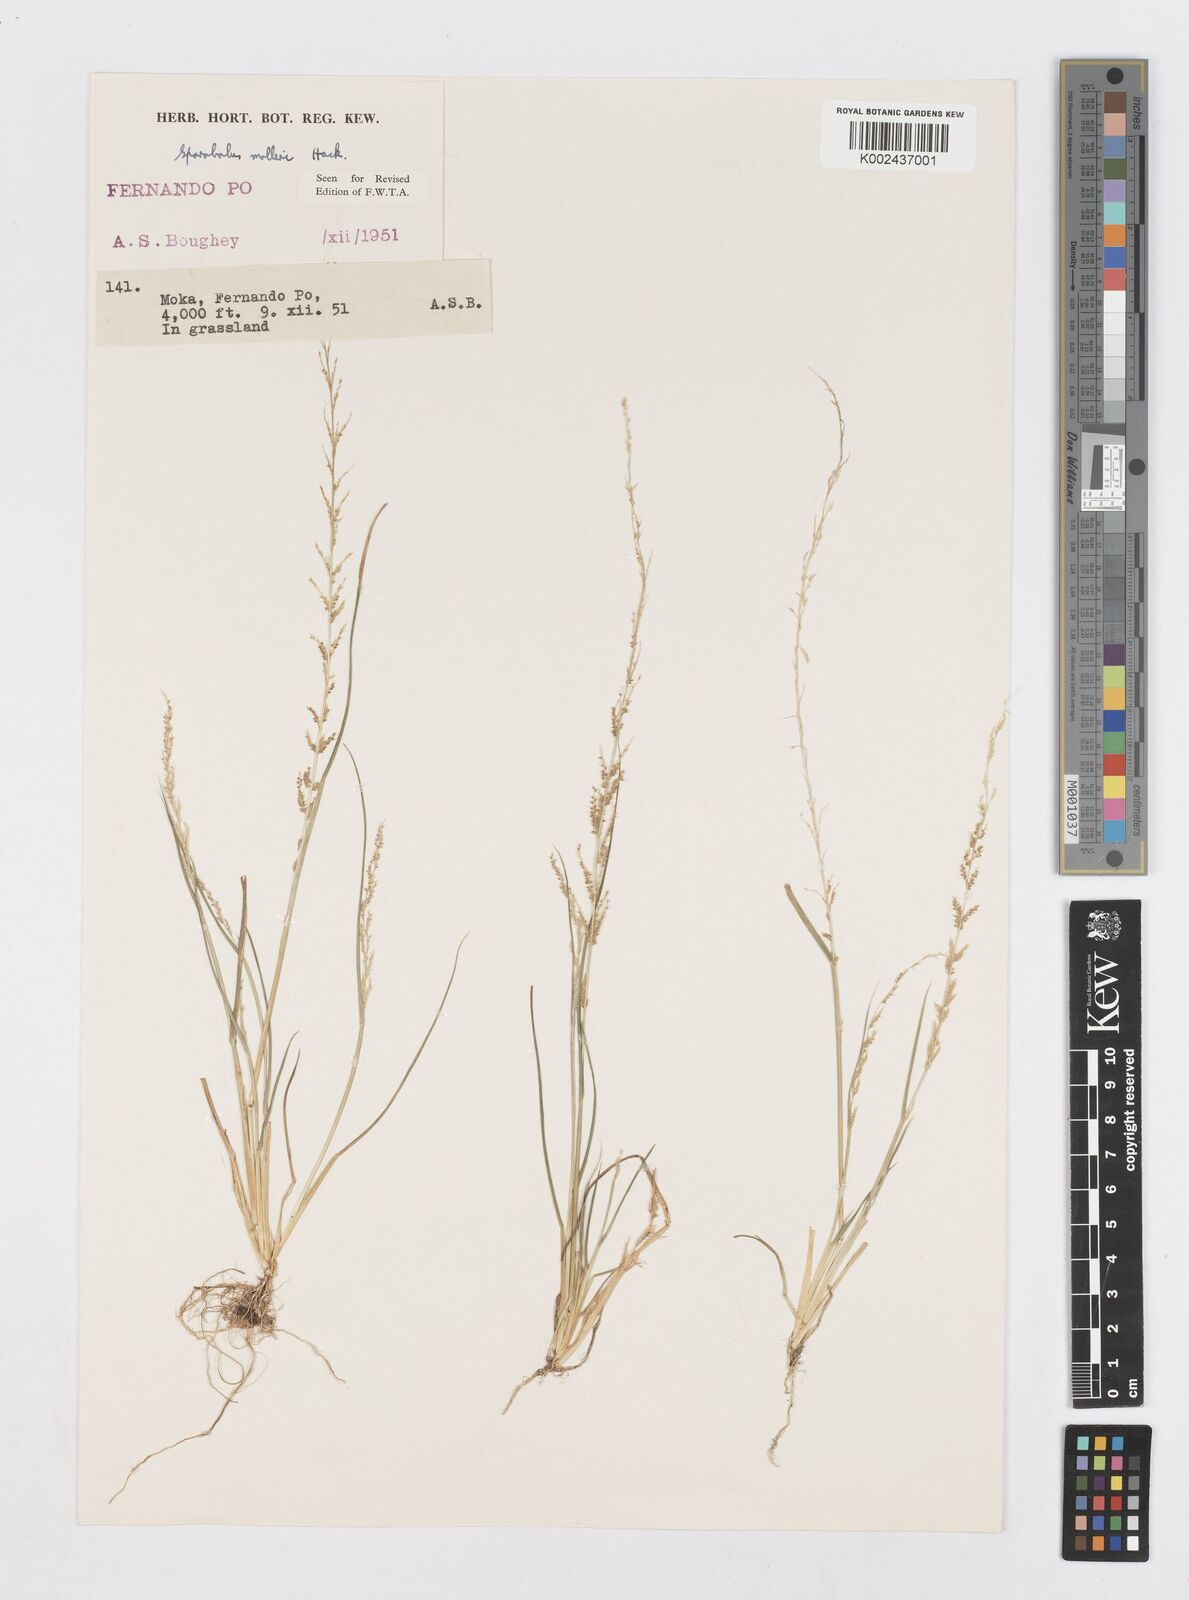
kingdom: Plantae
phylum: Tracheophyta
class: Liliopsida
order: Poales
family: Poaceae
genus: Sporobolus
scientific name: Sporobolus molleri
